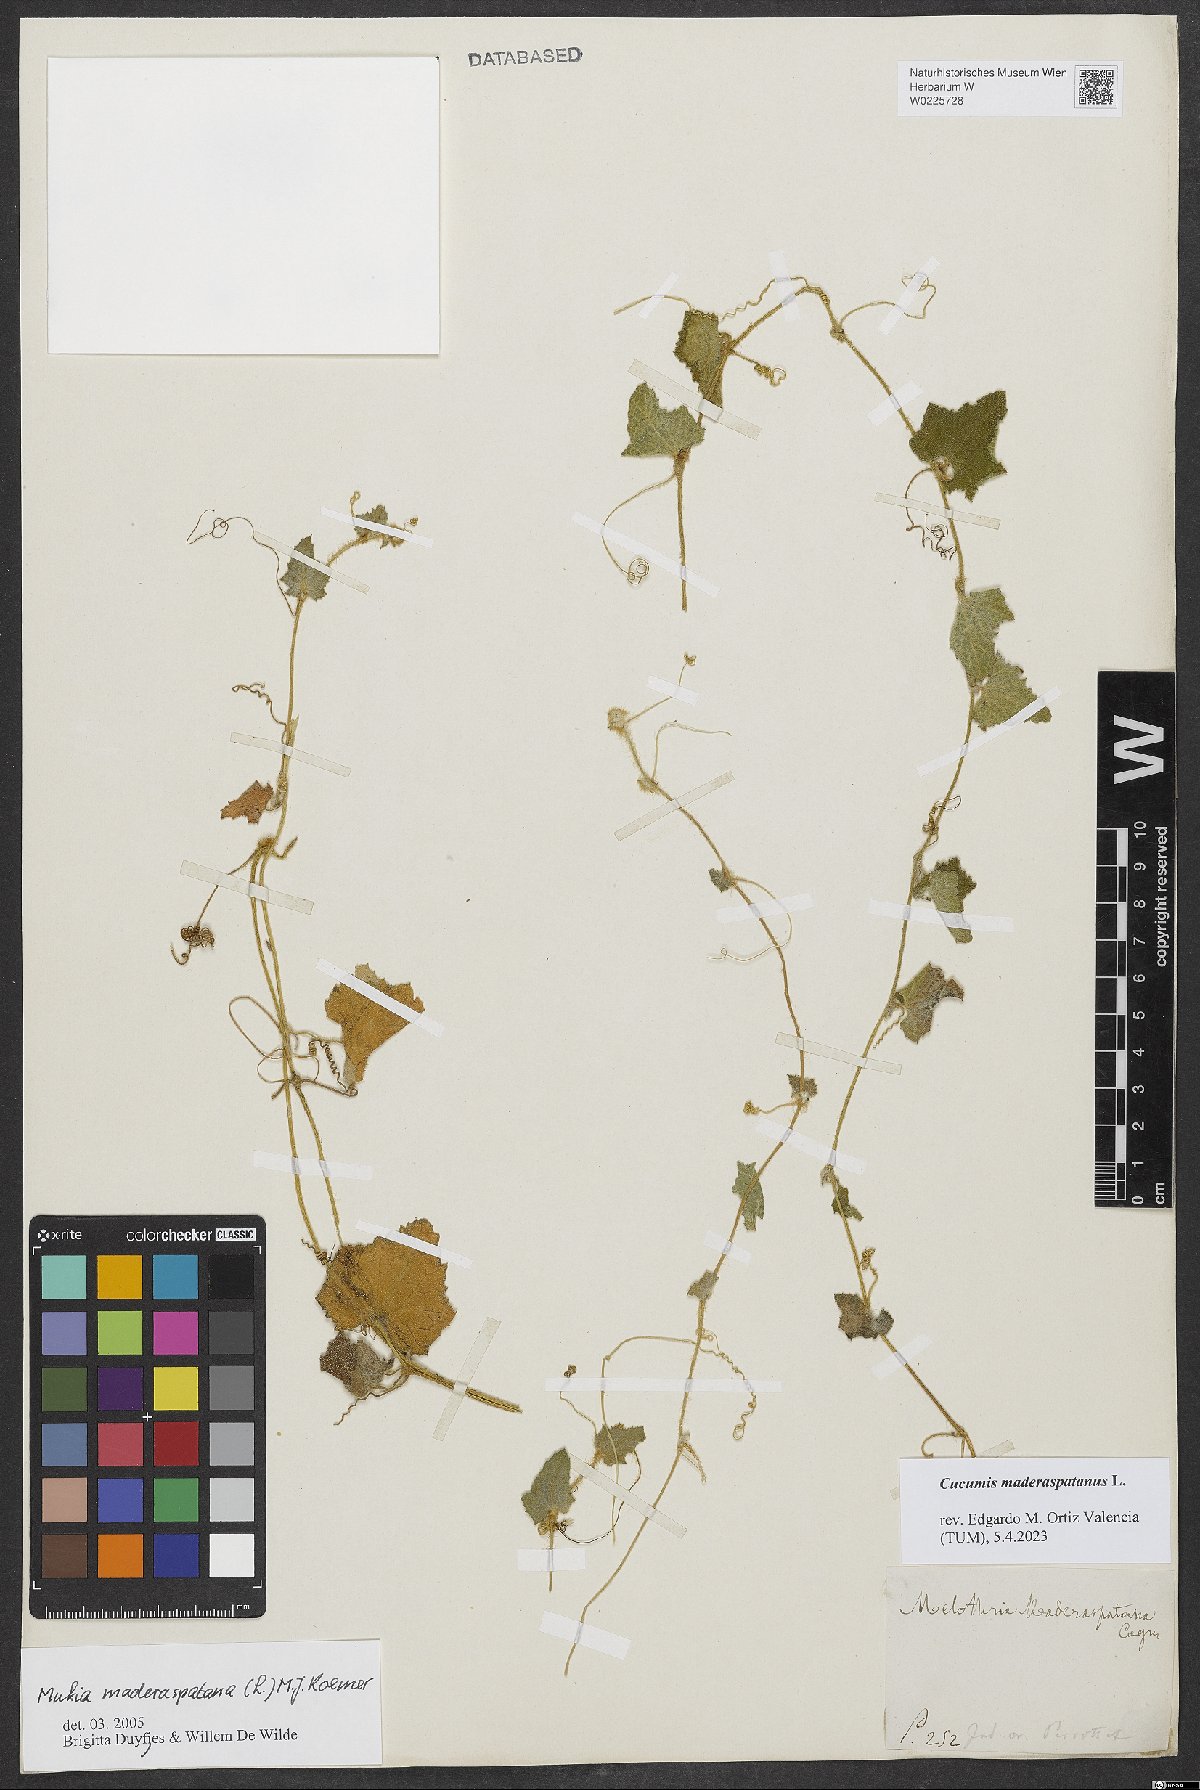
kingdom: Plantae
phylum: Tracheophyta
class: Magnoliopsida
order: Cucurbitales
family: Cucurbitaceae
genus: Cucumis
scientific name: Cucumis maderaspatanus
